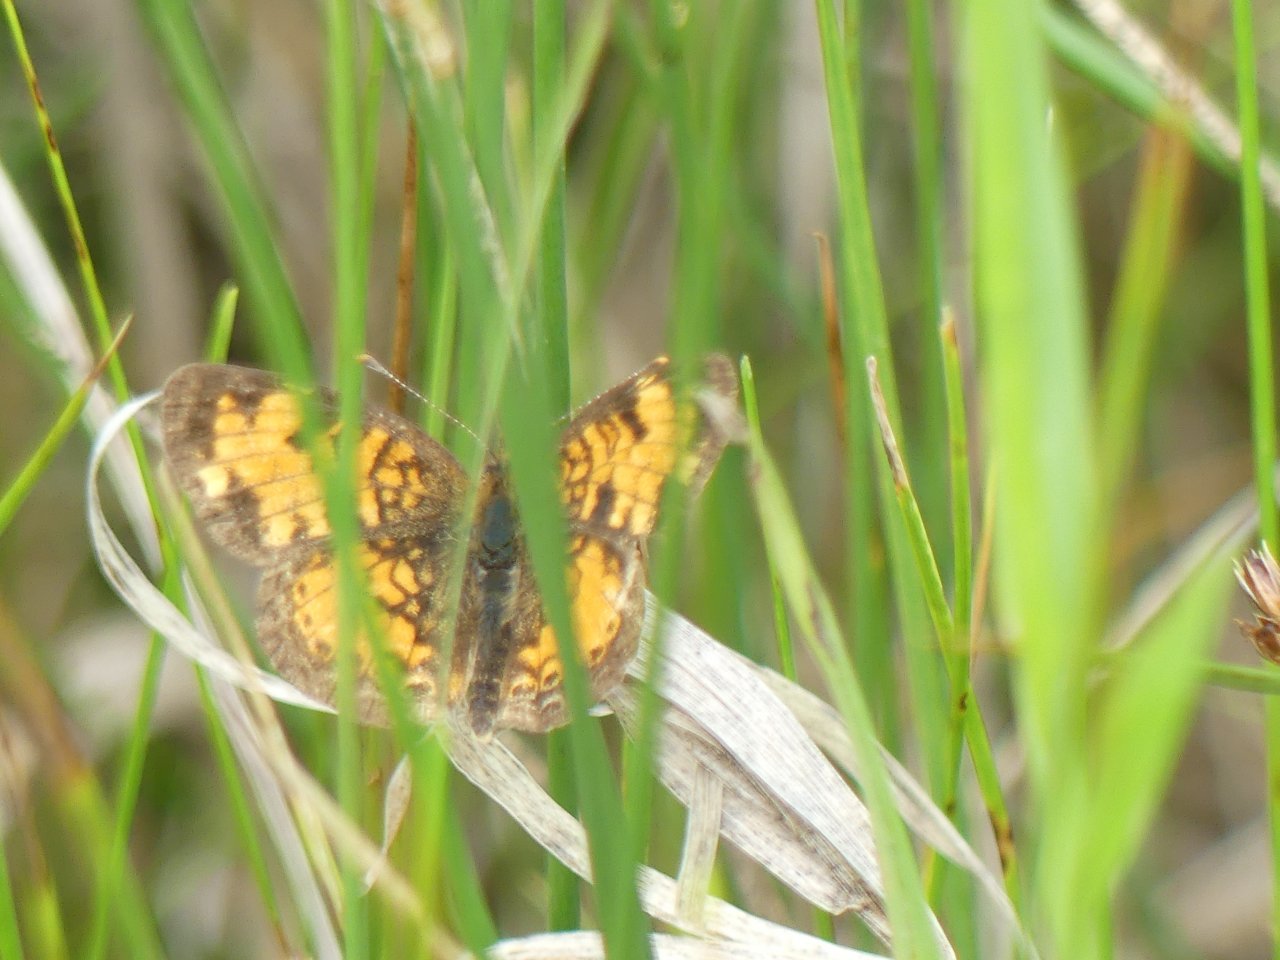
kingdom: Animalia
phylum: Arthropoda
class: Insecta
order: Lepidoptera
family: Nymphalidae
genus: Phyciodes
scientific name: Phyciodes tharos
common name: Northern Crescent
